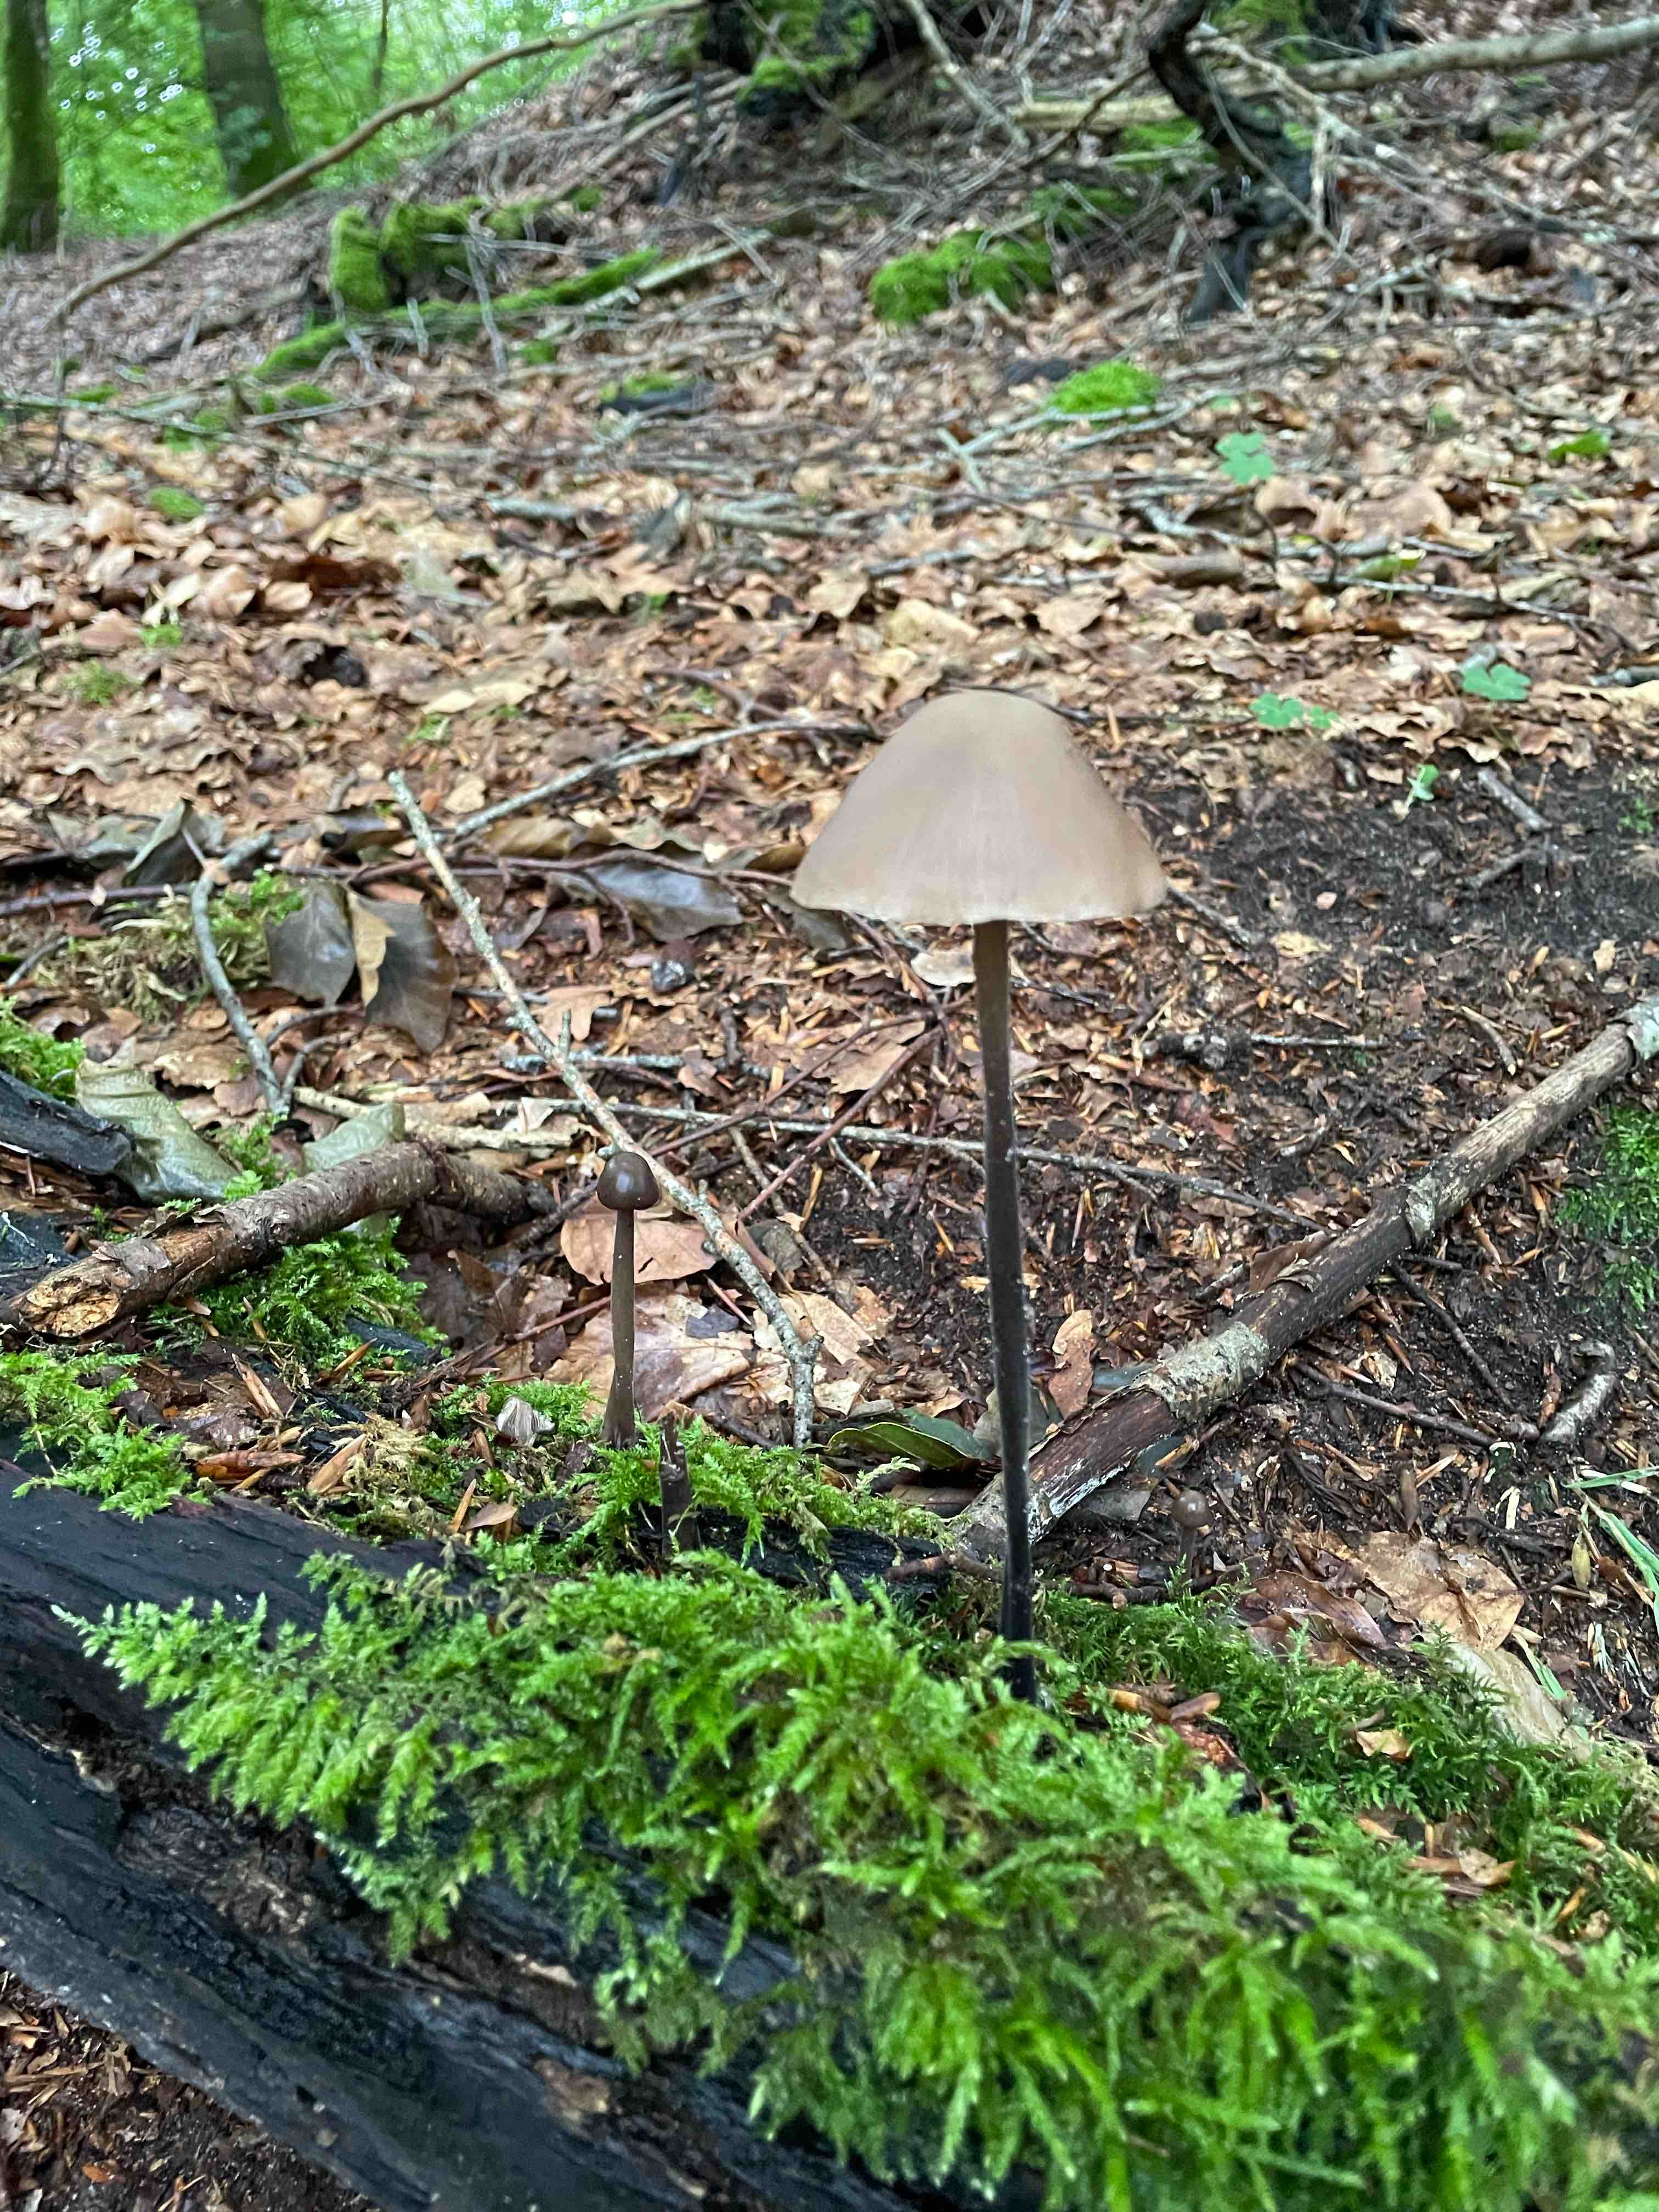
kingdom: Fungi
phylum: Basidiomycota
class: Agaricomycetes
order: Agaricales
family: Omphalotaceae
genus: Mycetinis
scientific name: Mycetinis alliaceus
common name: stor løghat
